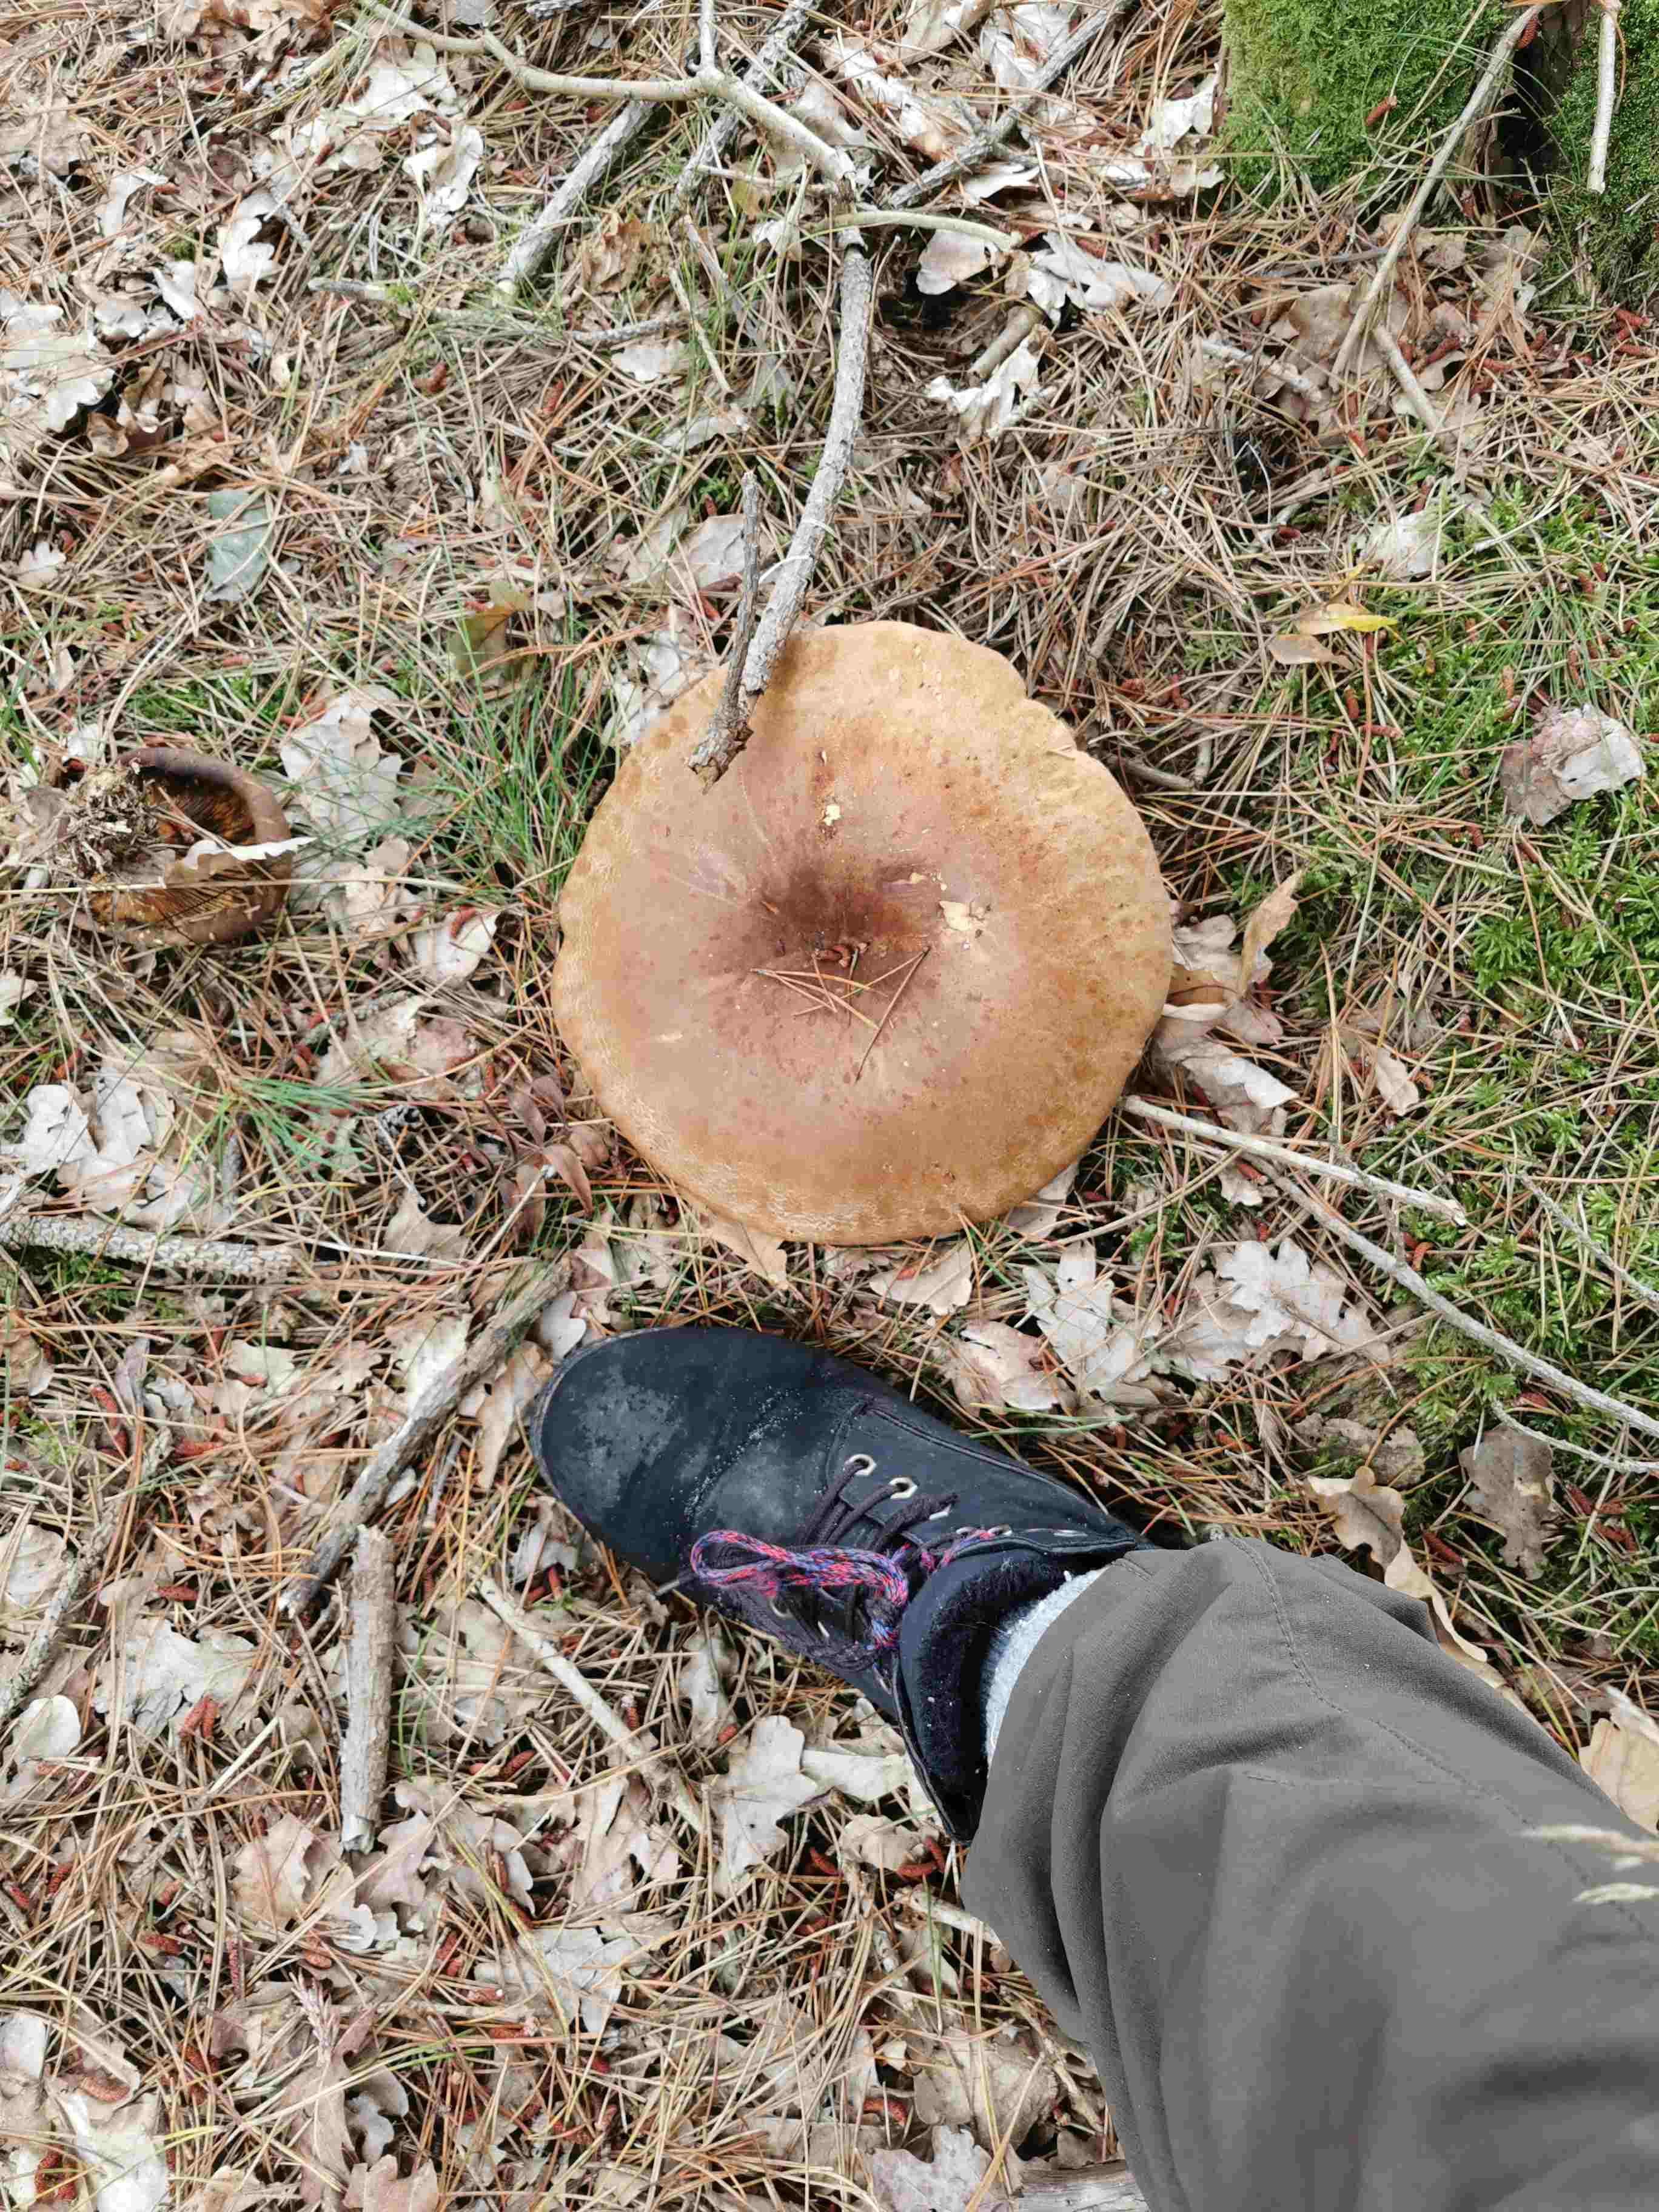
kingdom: Plantae
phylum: Bryophyta
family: Agaricomycetidae
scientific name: Agaricomycetidae
